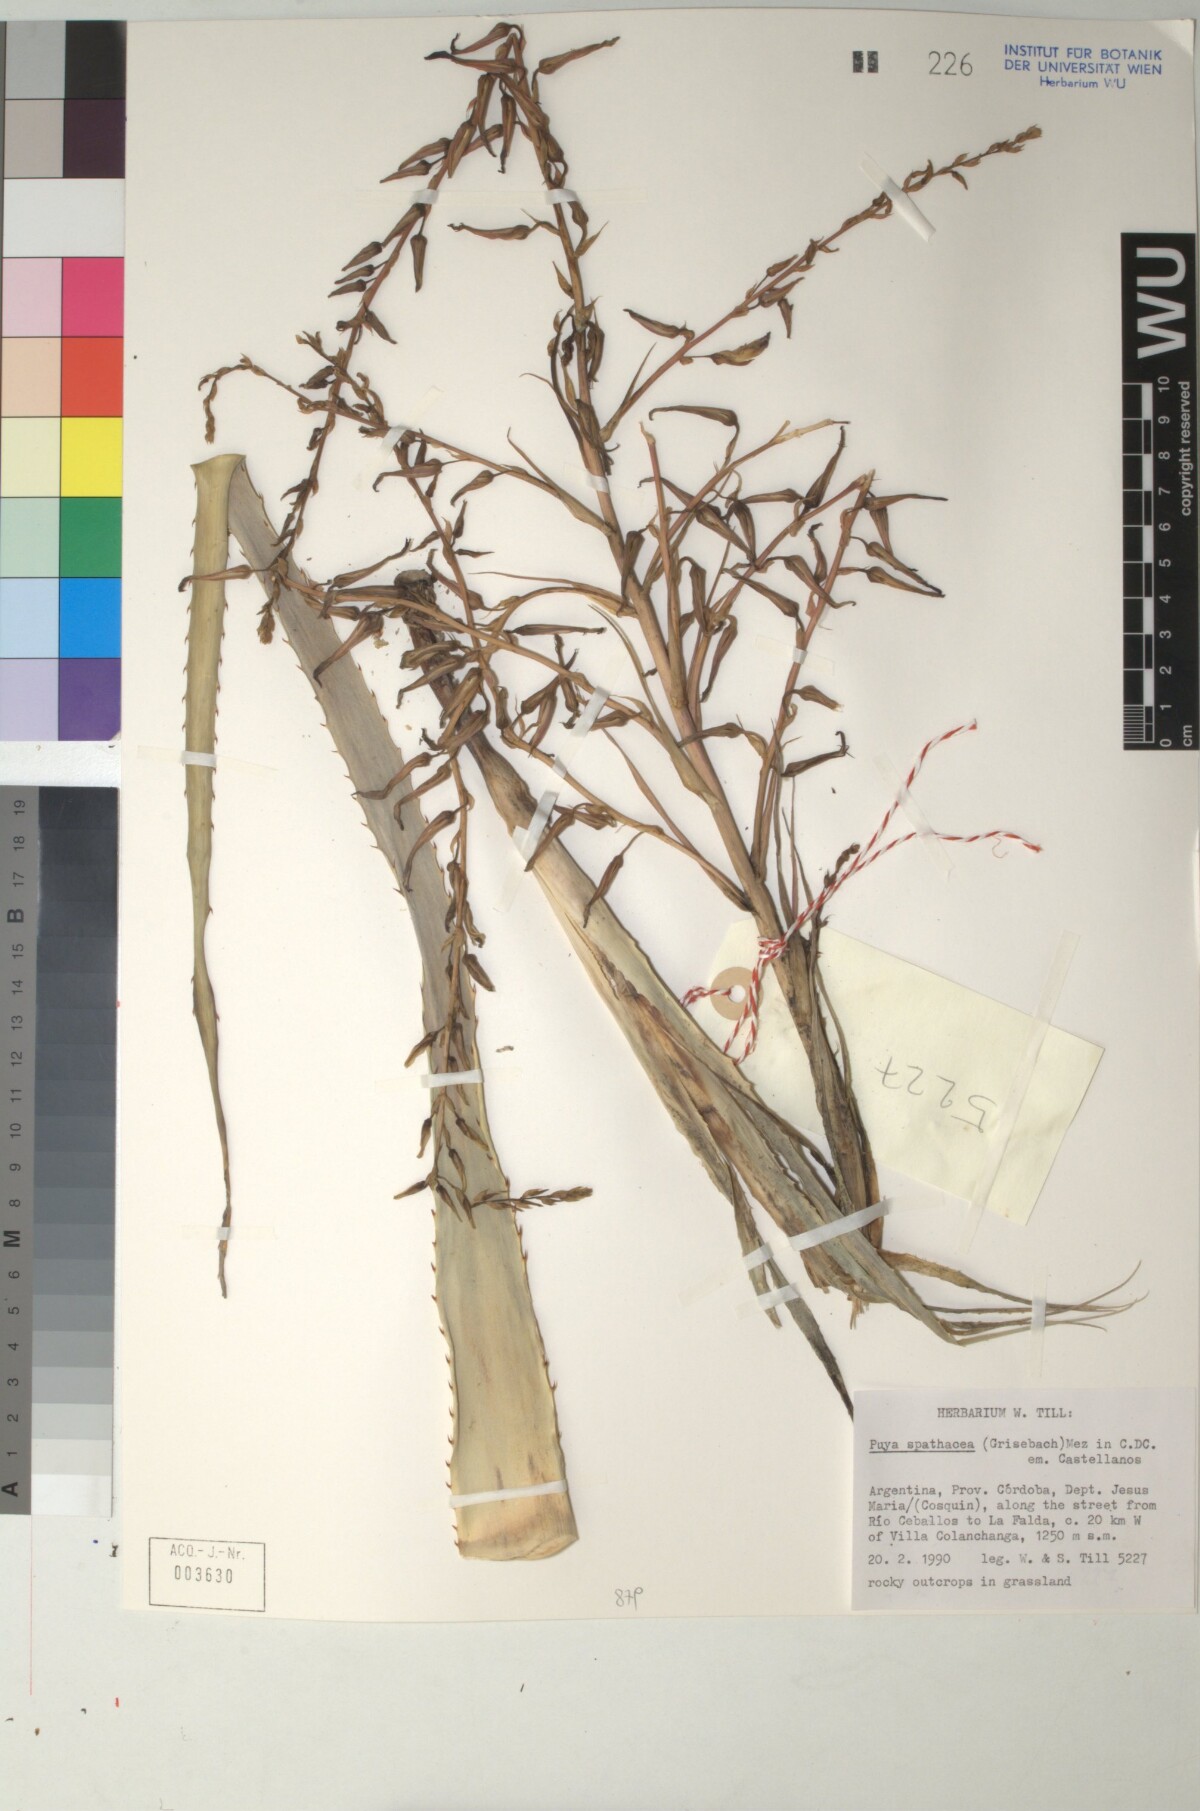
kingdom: Plantae
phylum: Tracheophyta
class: Liliopsida
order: Poales
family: Bromeliaceae
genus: Puya
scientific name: Puya spathacea
